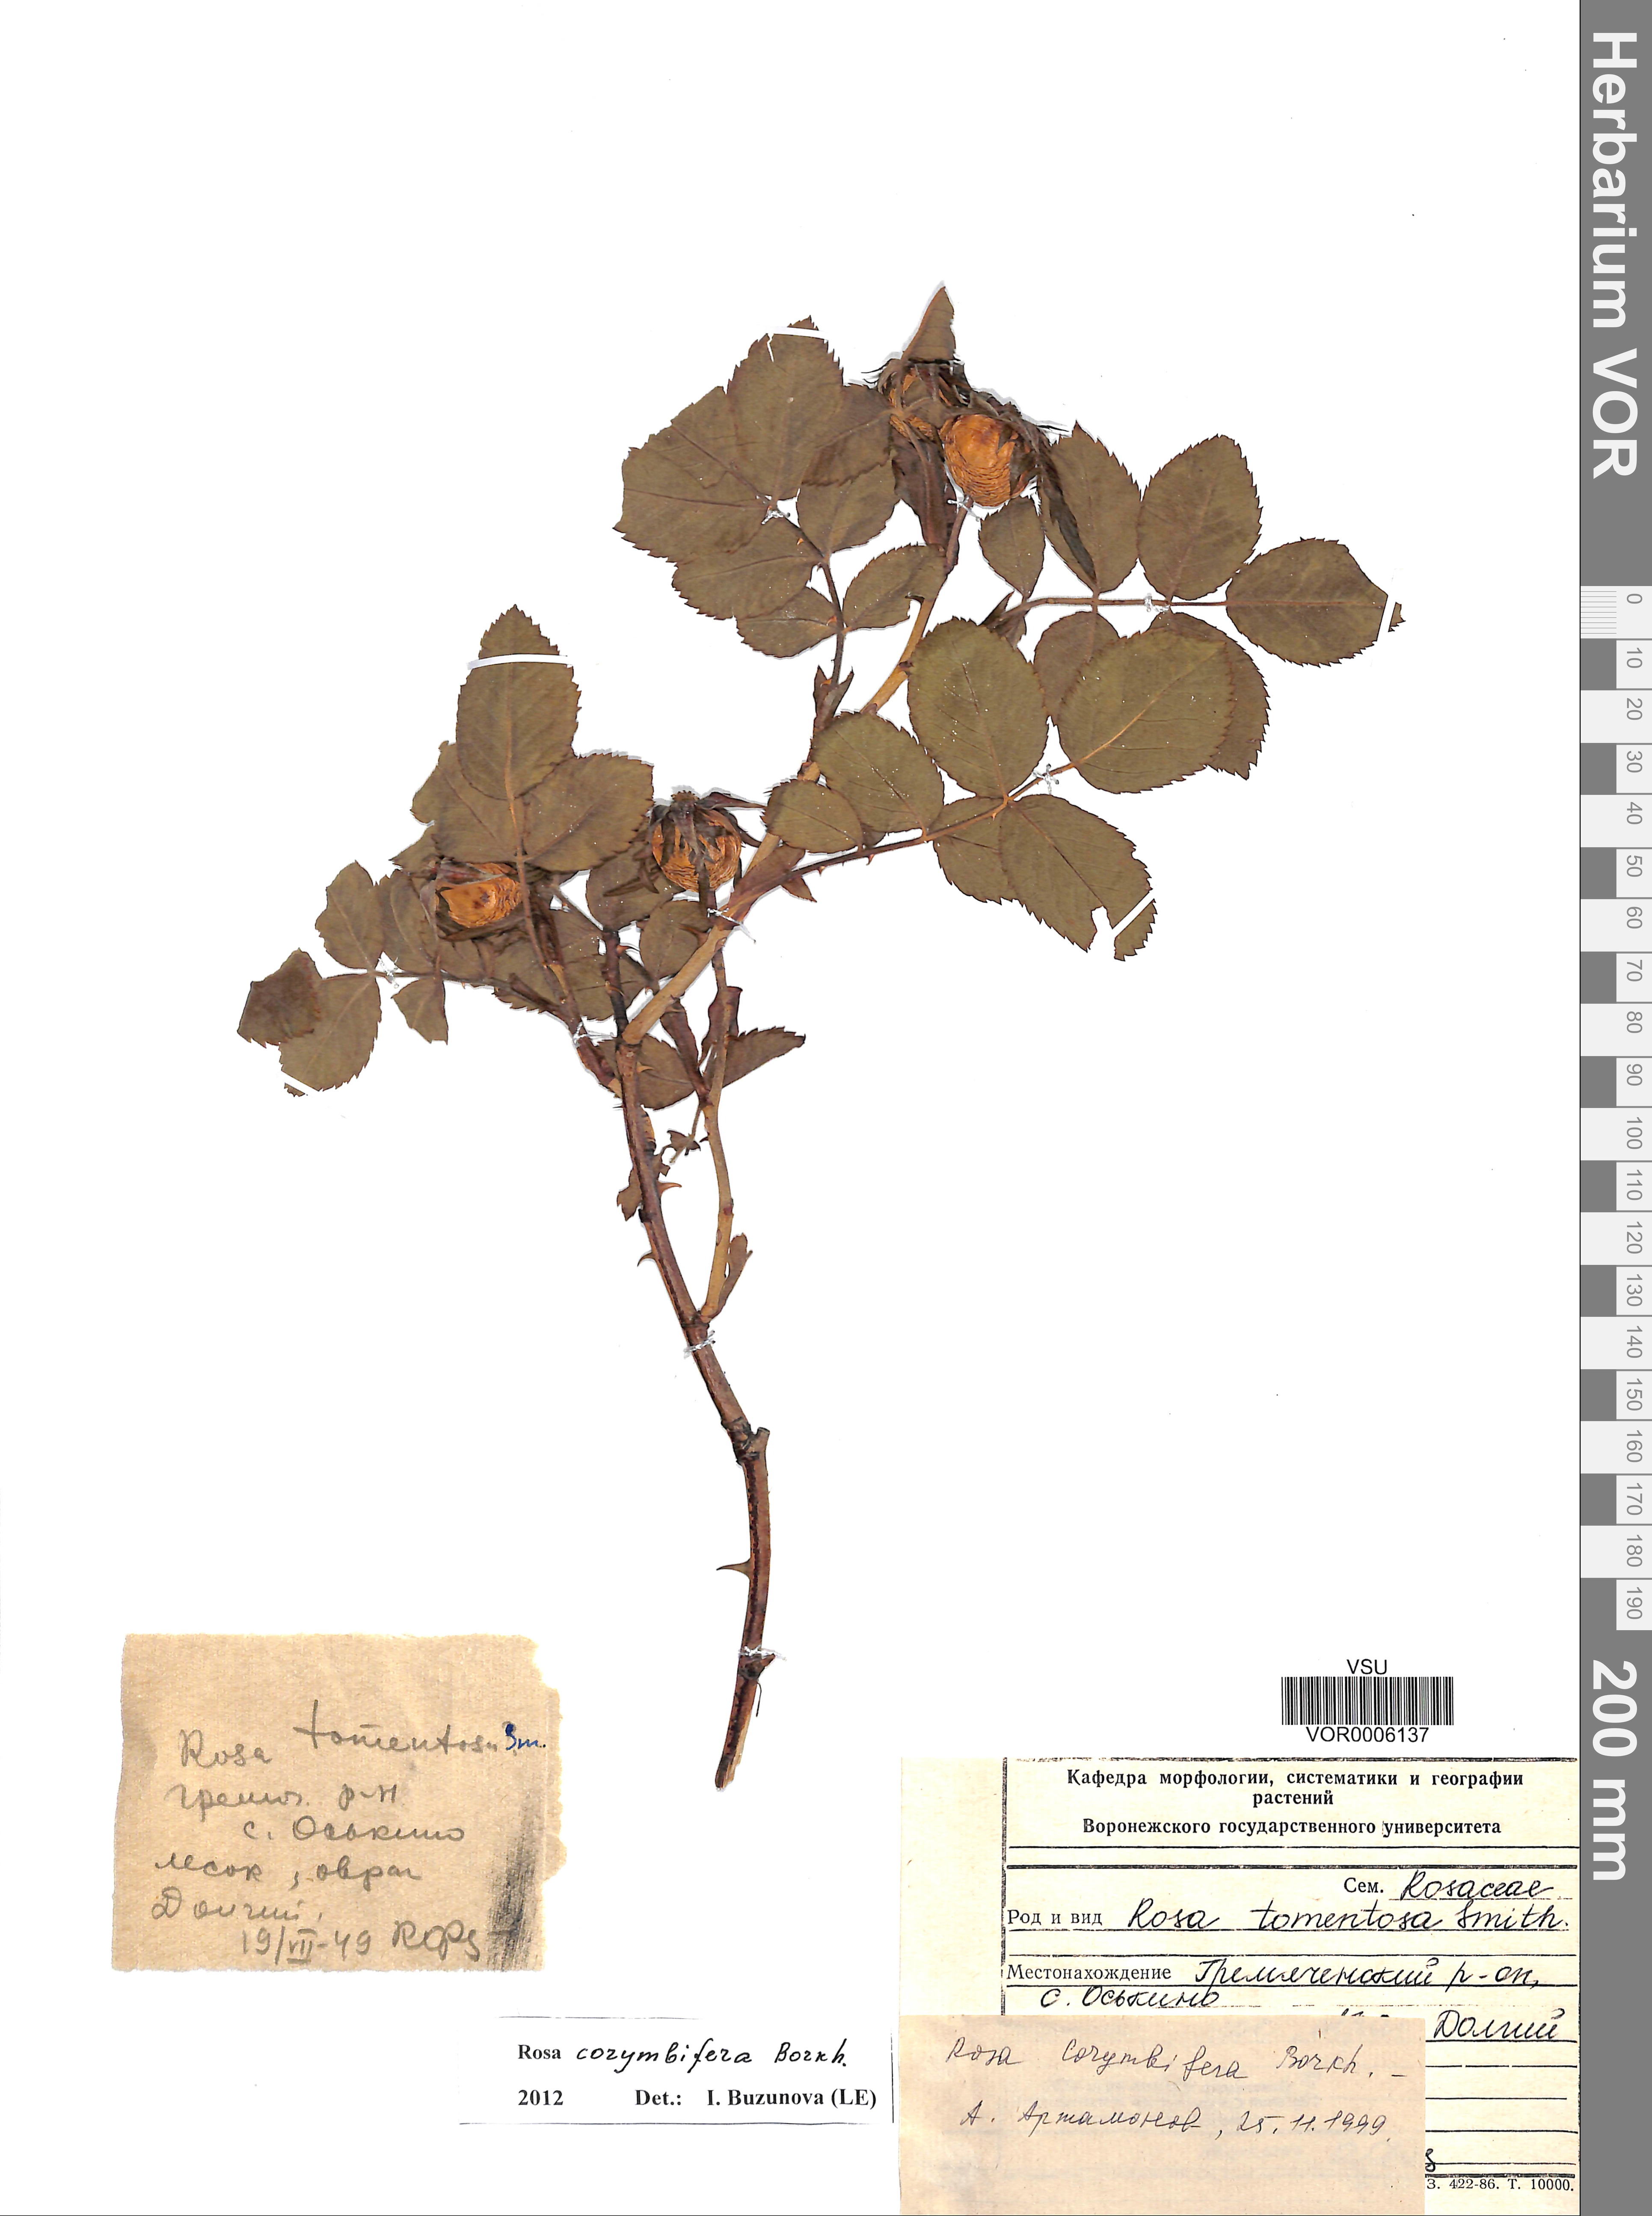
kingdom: Plantae
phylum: Tracheophyta
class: Magnoliopsida
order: Rosales
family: Rosaceae
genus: Rosa
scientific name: Rosa corymbifera
